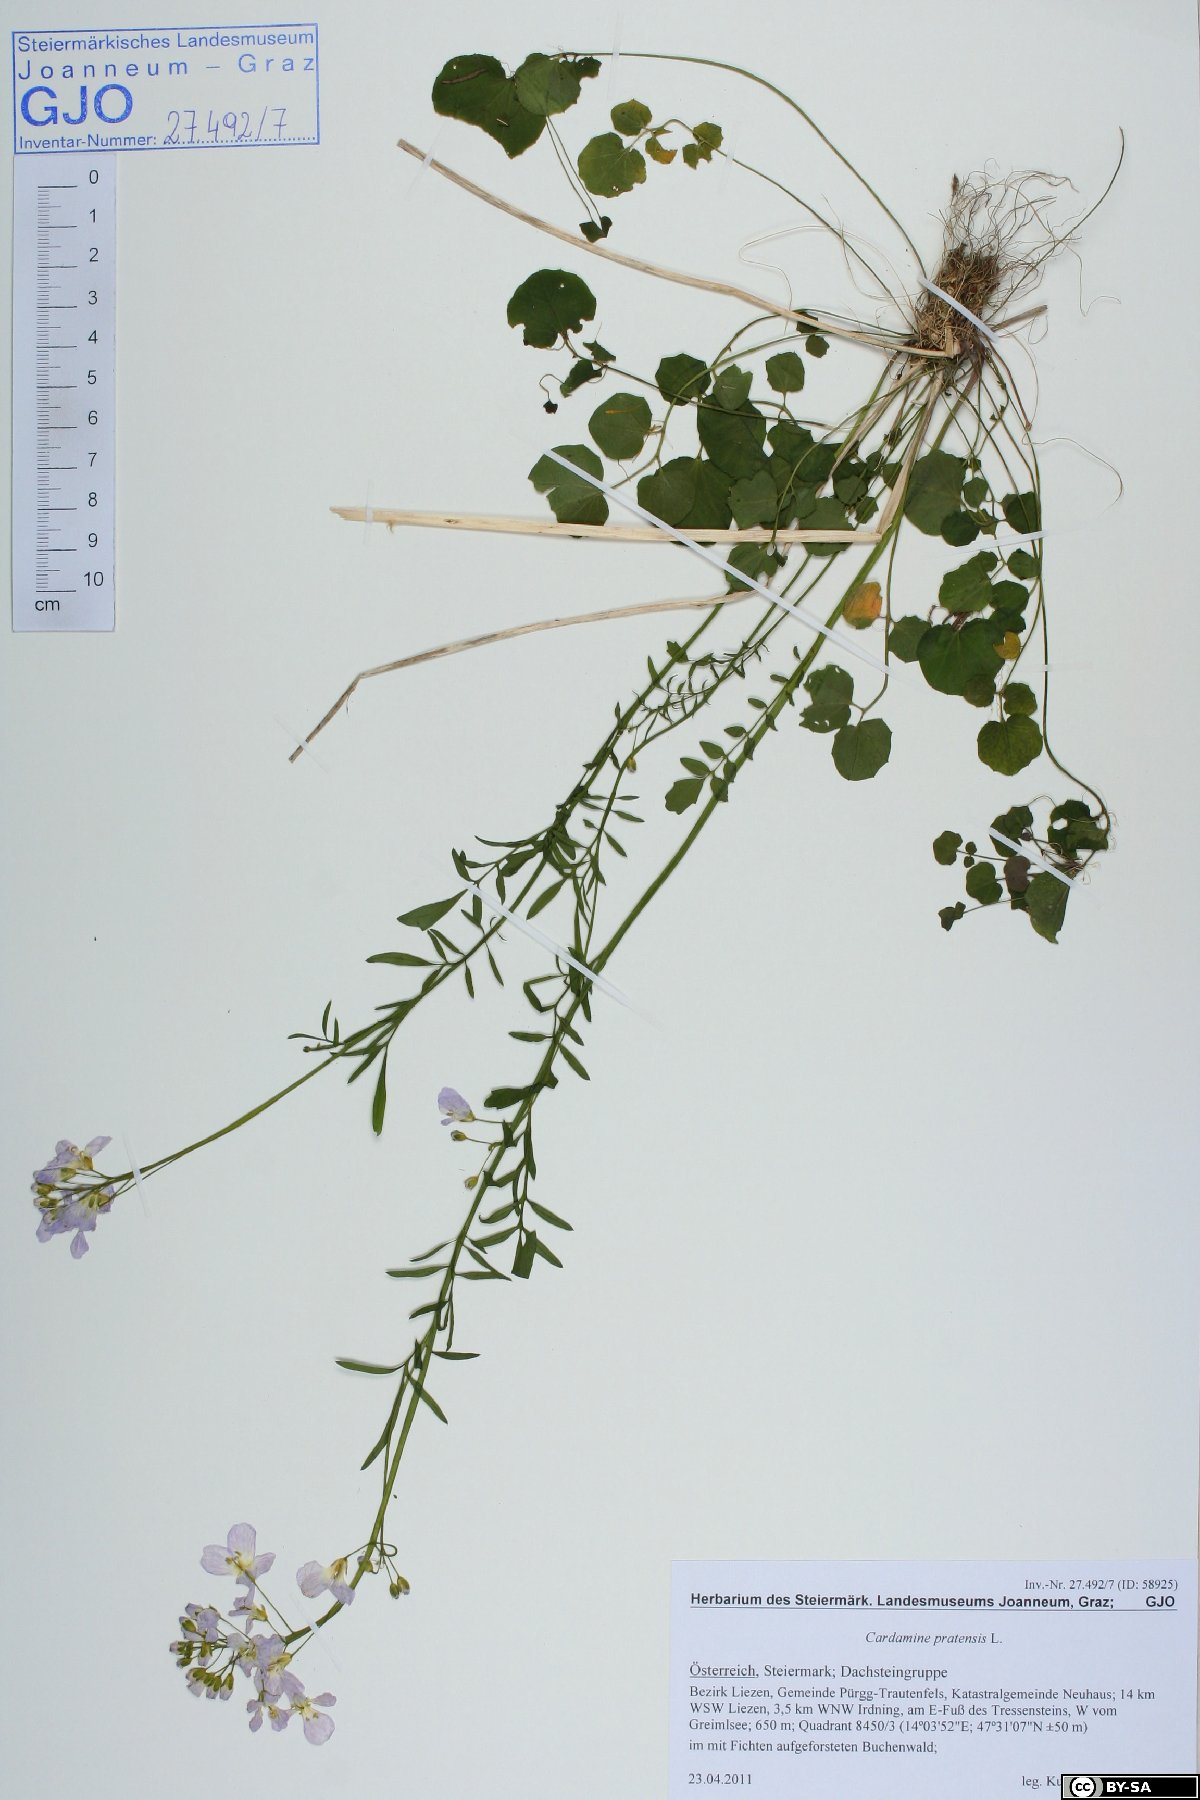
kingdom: Plantae
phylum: Tracheophyta
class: Magnoliopsida
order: Brassicales
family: Brassicaceae
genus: Cardamine
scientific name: Cardamine pratensis
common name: Cuckoo flower
